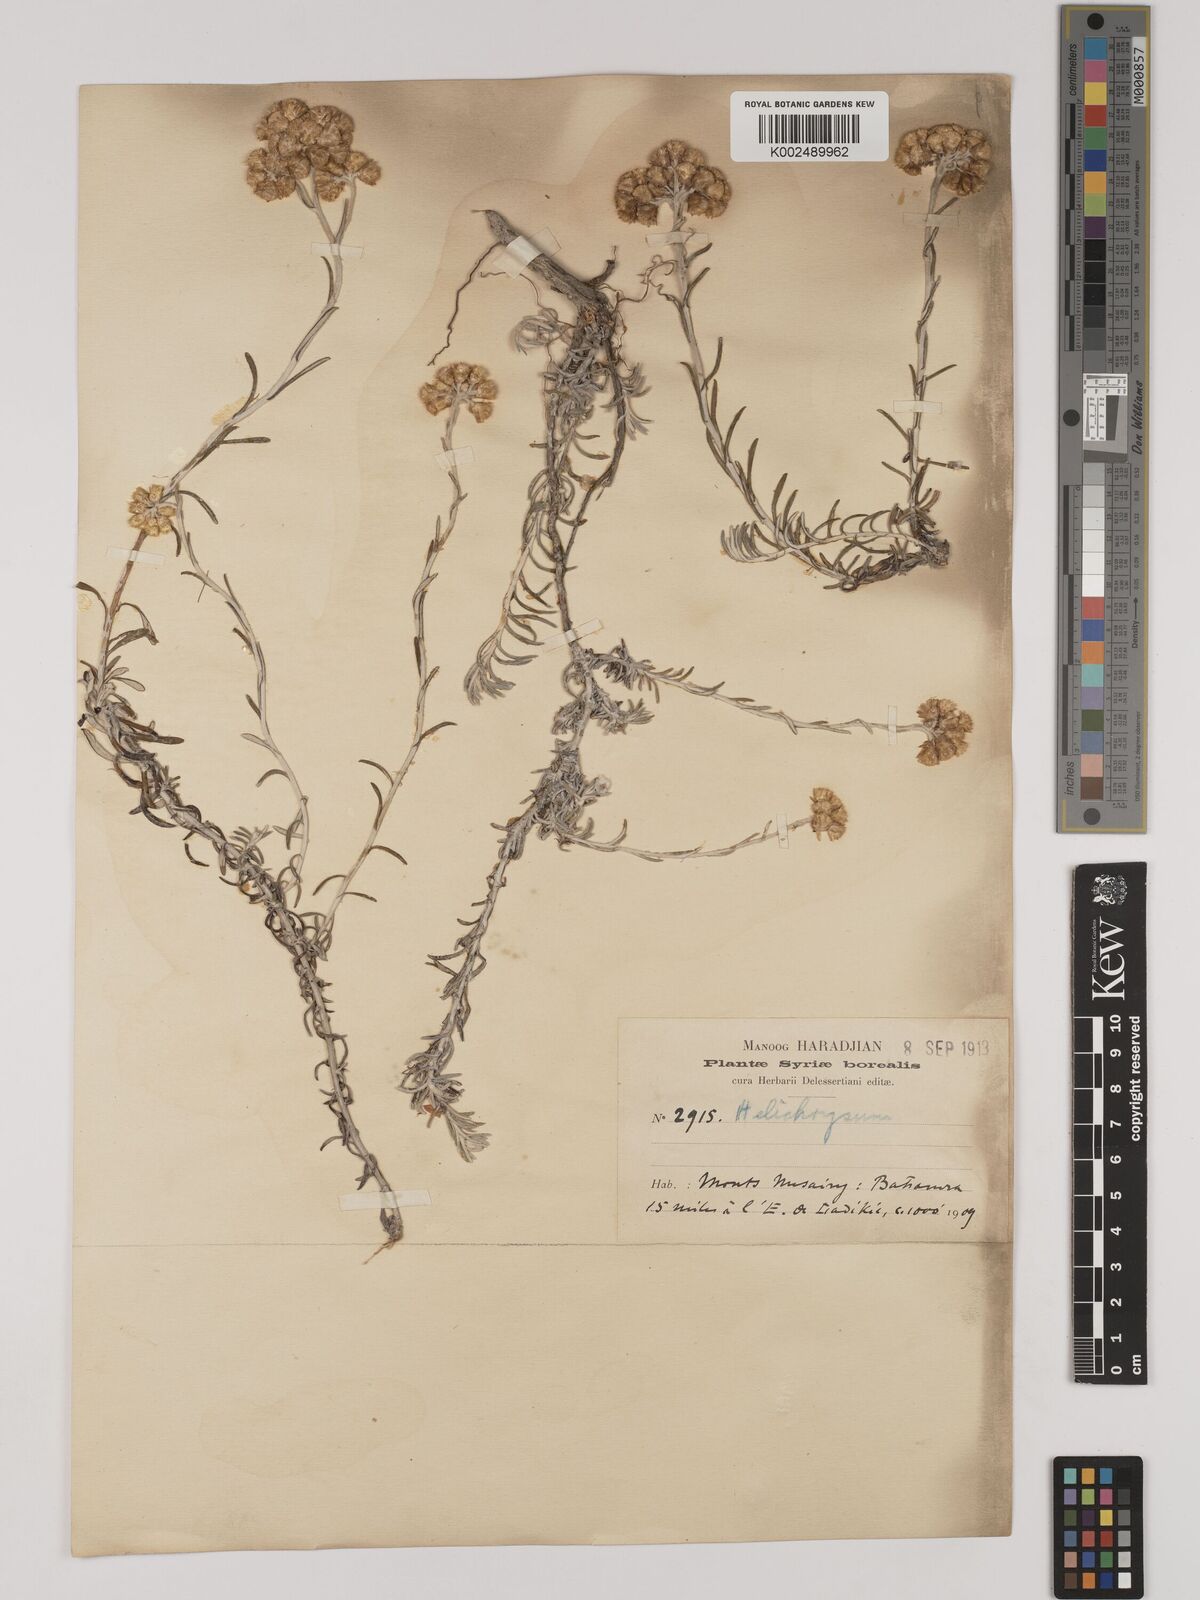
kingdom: Plantae
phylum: Tracheophyta
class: Magnoliopsida
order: Asterales
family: Asteraceae
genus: Helichrysum
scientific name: Helichrysum stoechas
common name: Goldilocks
